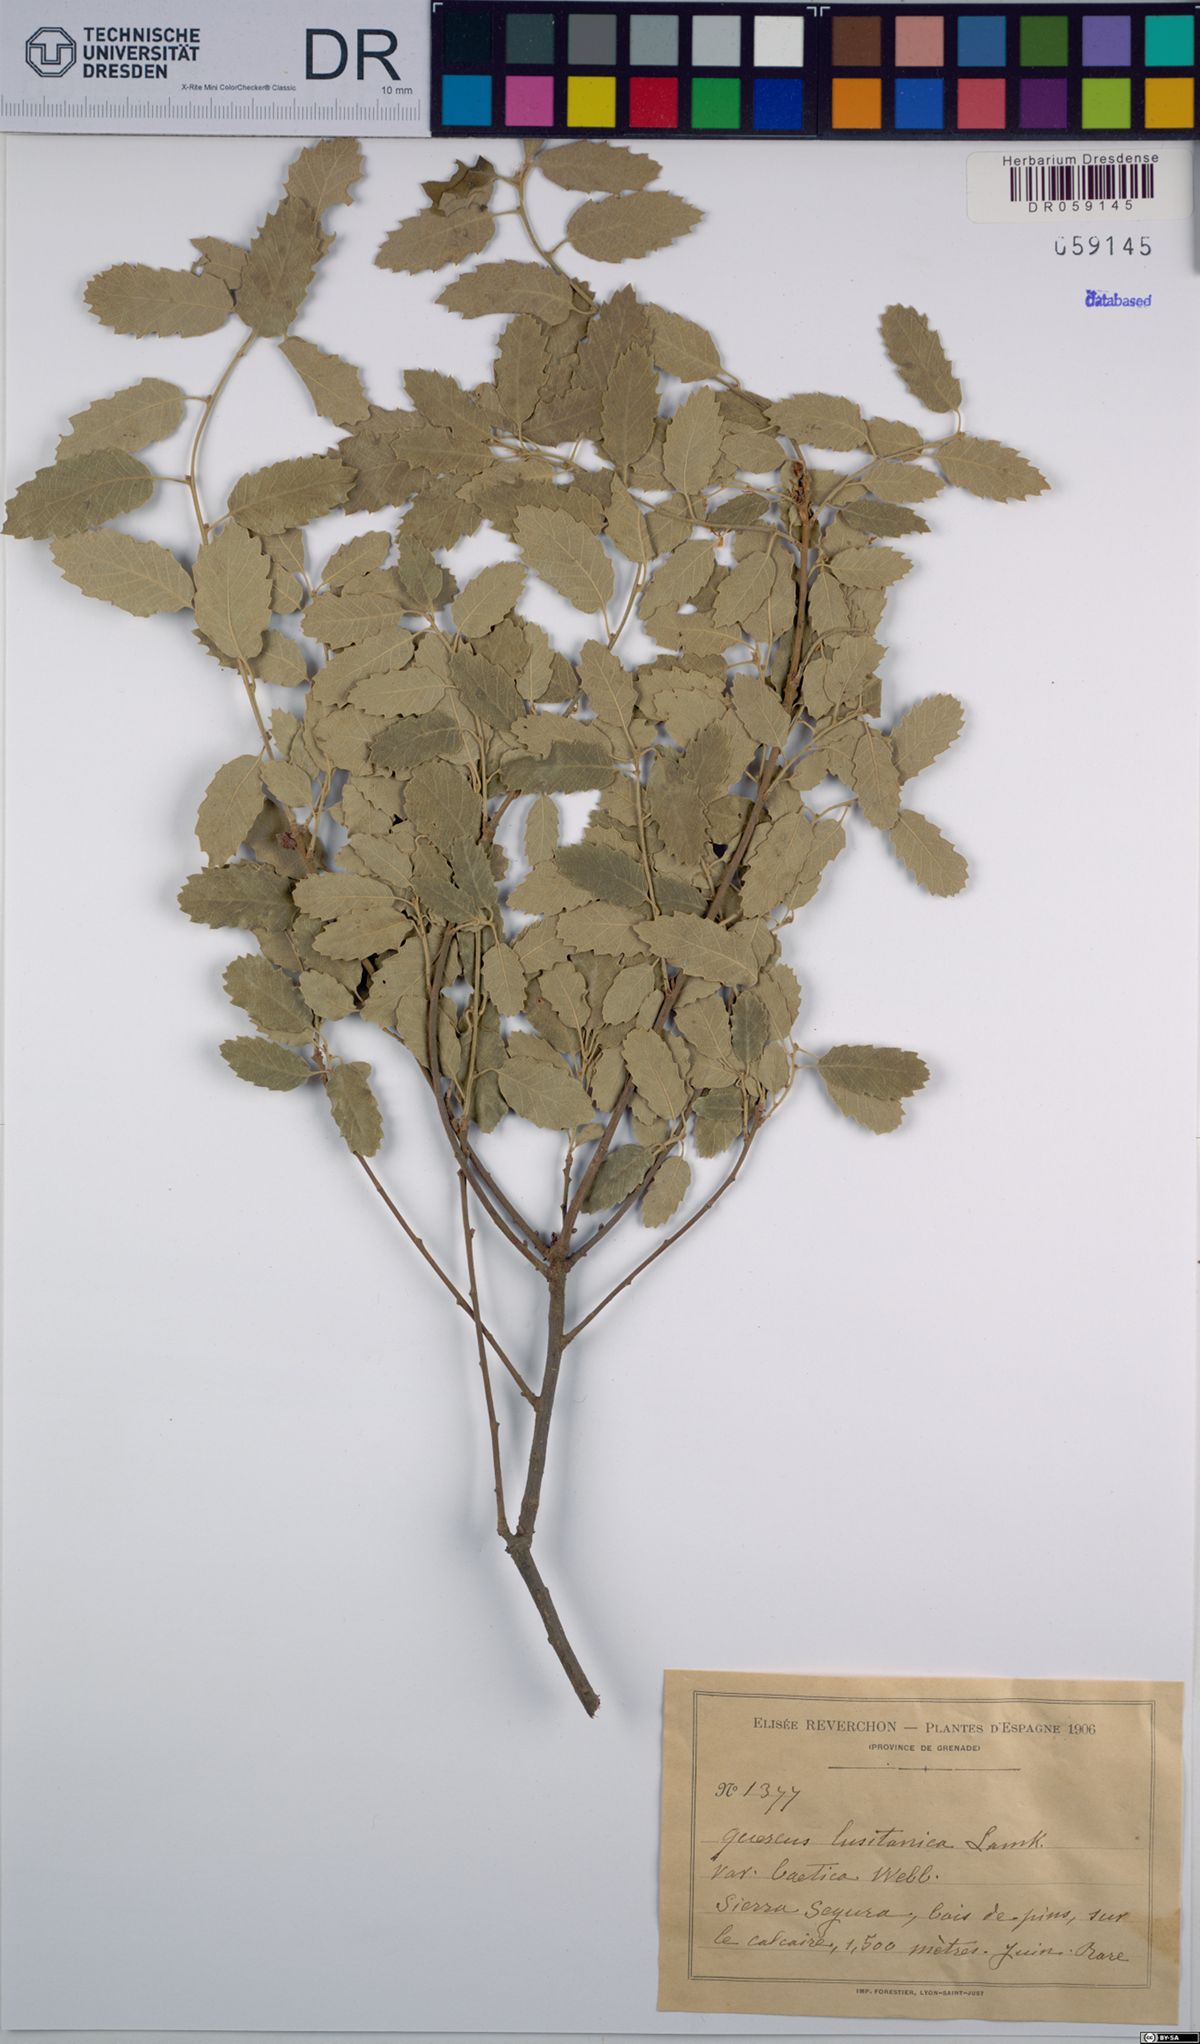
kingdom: Plantae
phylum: Tracheophyta
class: Magnoliopsida
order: Fagales
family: Fagaceae
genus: Quercus
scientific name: Quercus lusitanica
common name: Scrub gall oak
